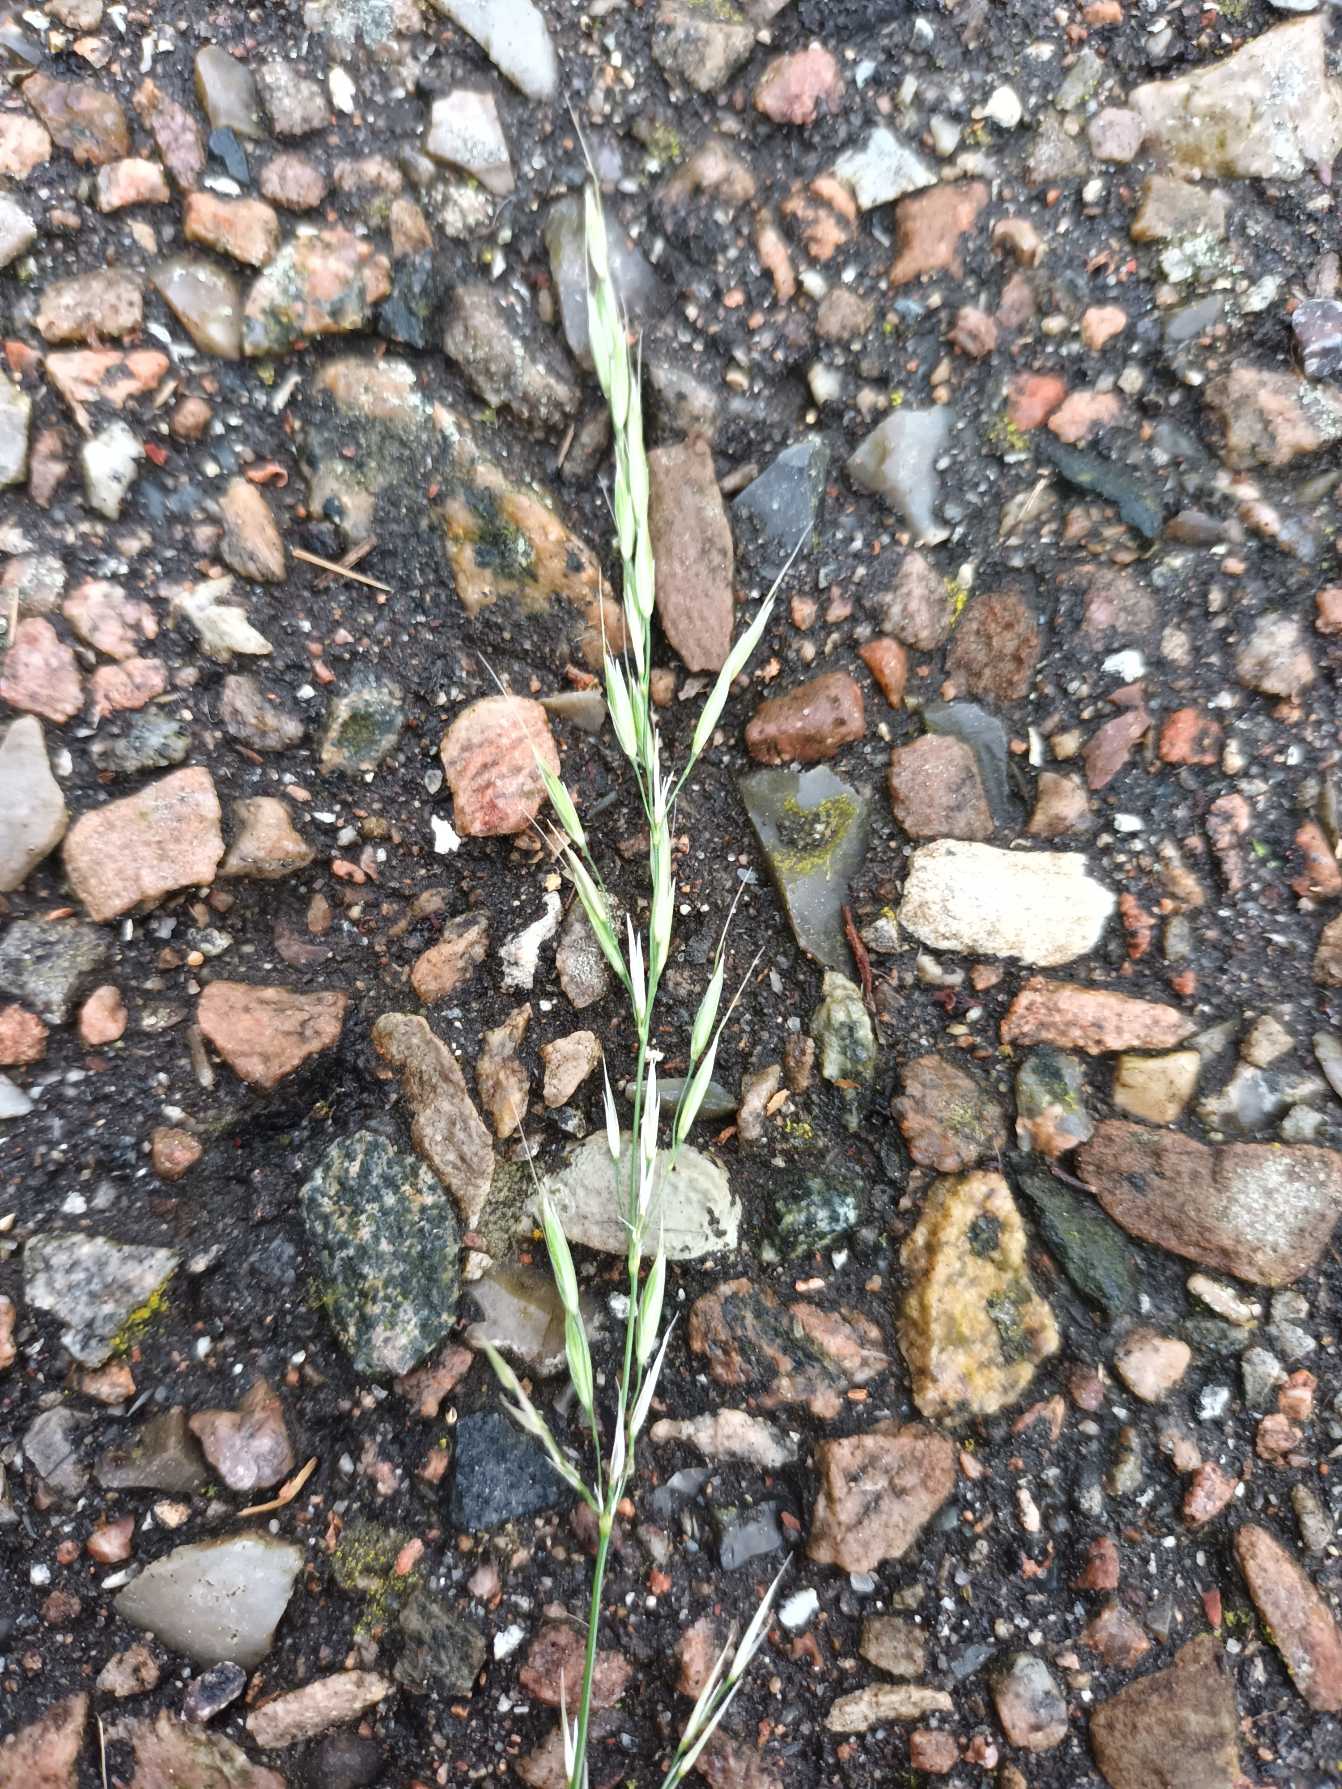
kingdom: Plantae
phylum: Tracheophyta
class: Liliopsida
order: Poales
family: Poaceae
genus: Arrhenatherum
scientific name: Arrhenatherum elatius
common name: Draphavre
